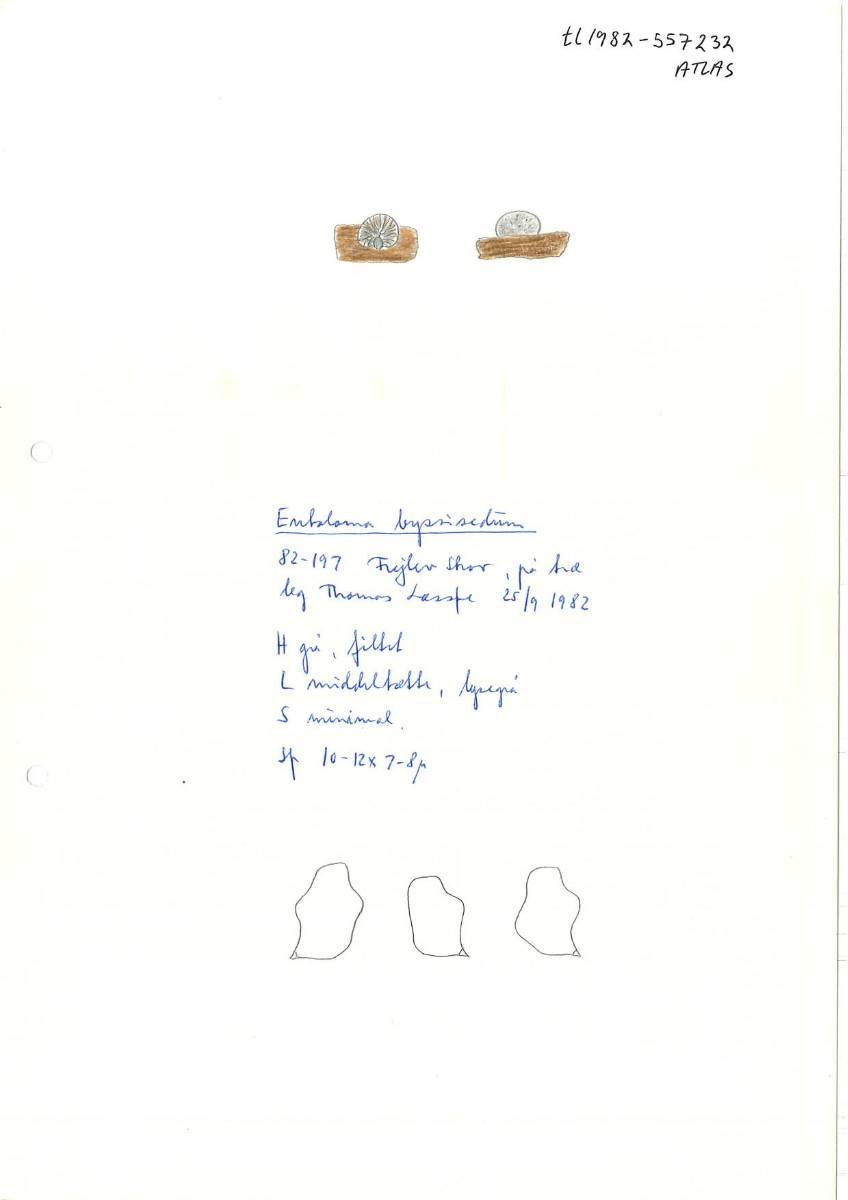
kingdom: Fungi
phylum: Basidiomycota
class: Agaricomycetes
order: Agaricales
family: Entolomataceae
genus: Entoloma
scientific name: Entoloma byssisedum
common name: vifte-rødblad
